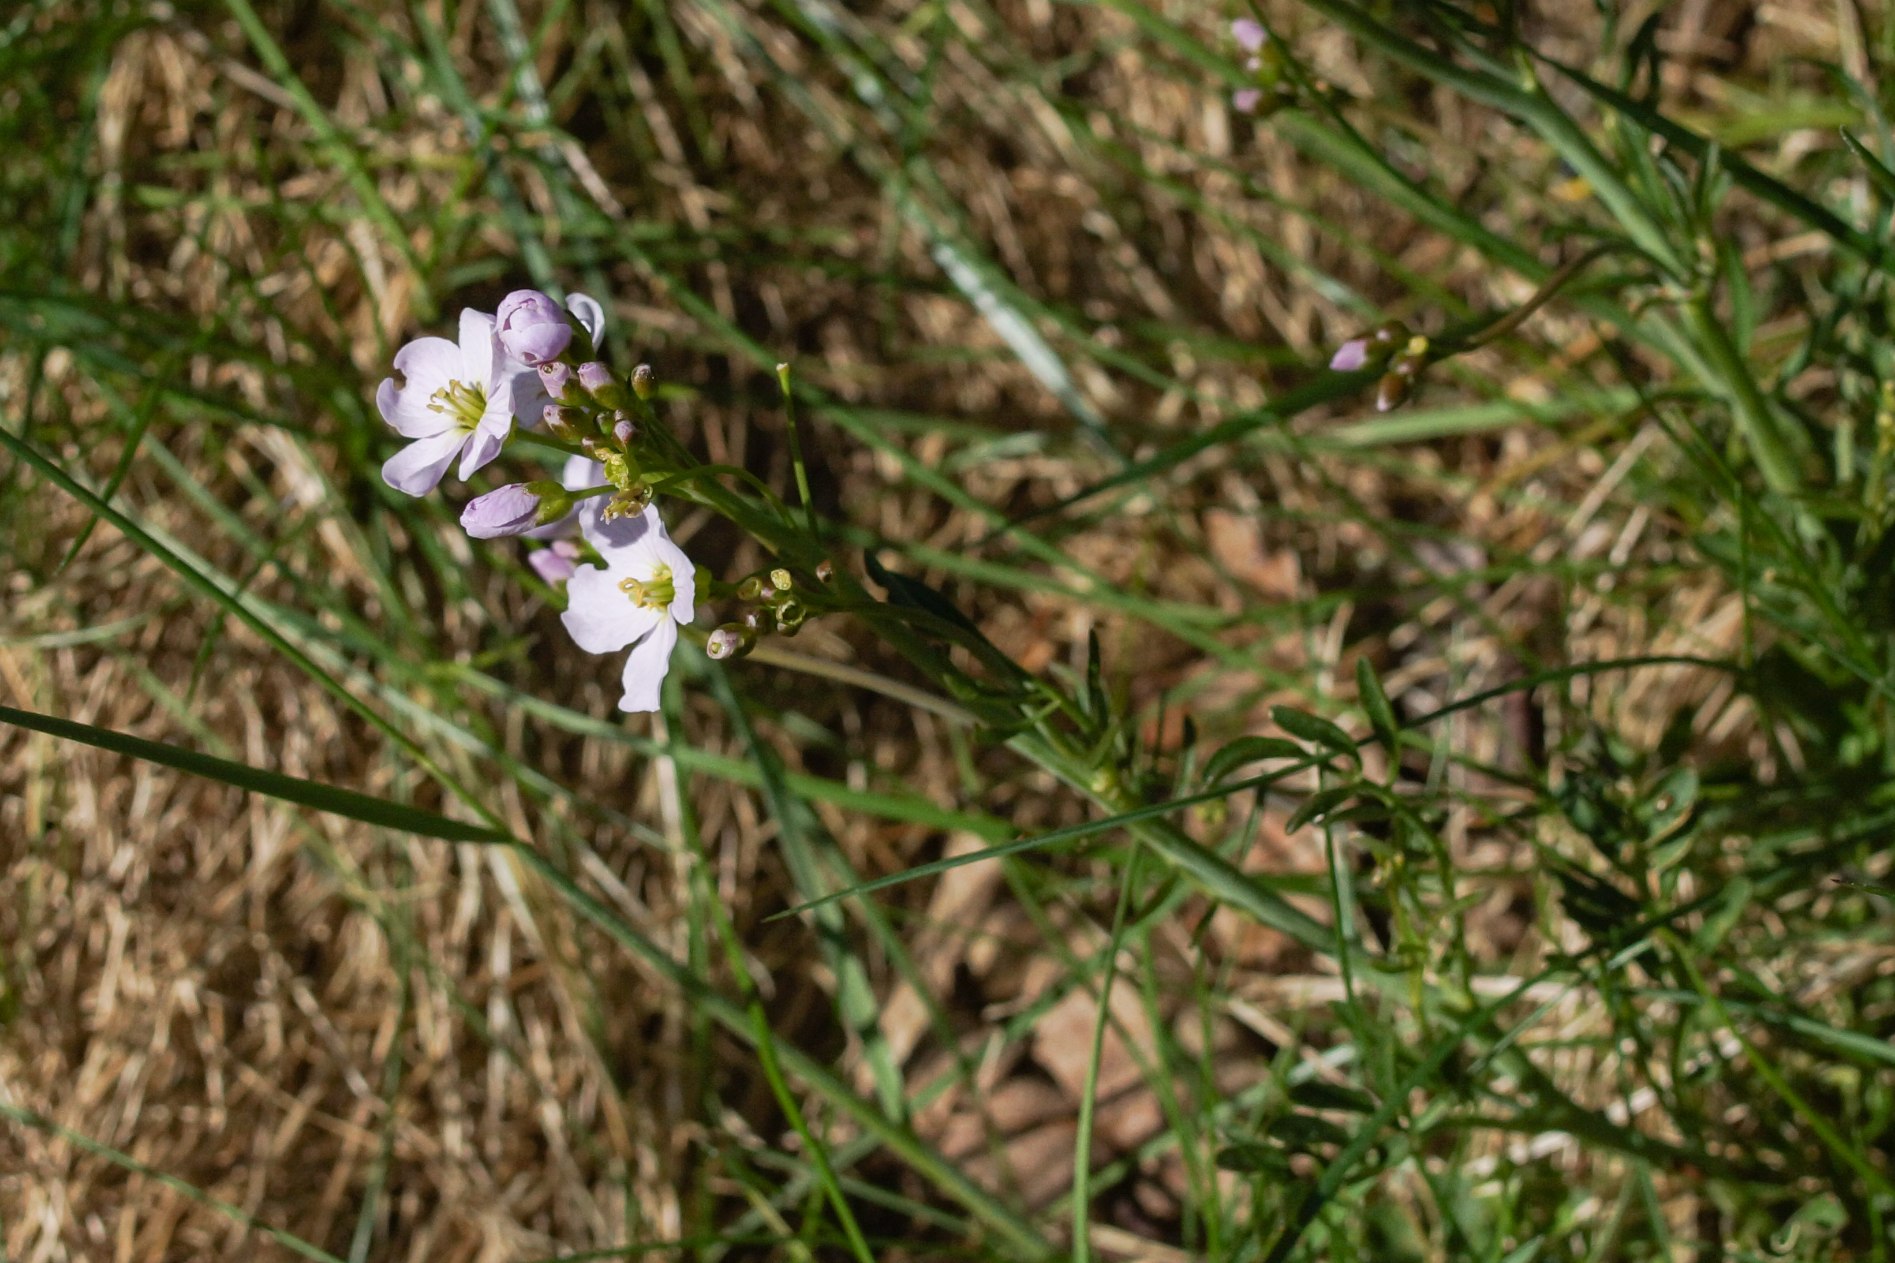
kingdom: Plantae
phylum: Tracheophyta
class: Magnoliopsida
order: Brassicales
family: Brassicaceae
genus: Cardamine
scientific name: Cardamine pratensis
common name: Engkarse
